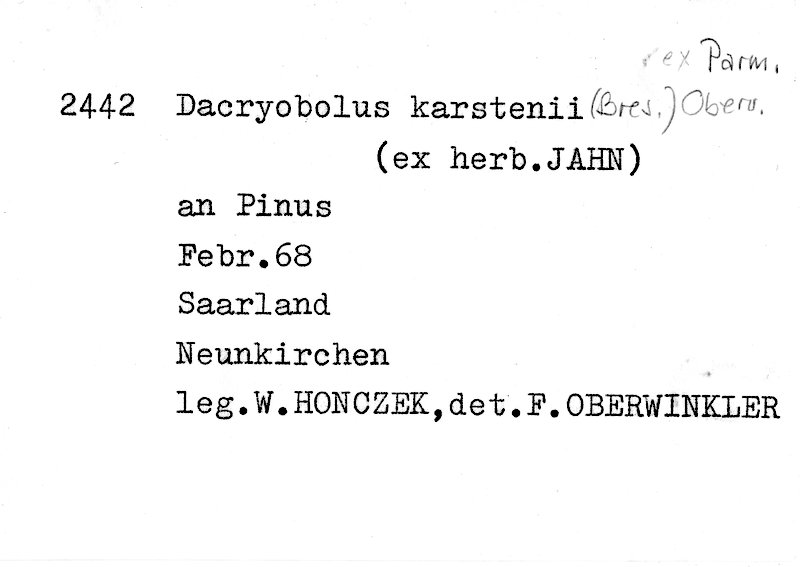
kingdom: Plantae
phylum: Tracheophyta
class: Pinopsida
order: Pinales
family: Pinaceae
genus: Pinus
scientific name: Pinus
